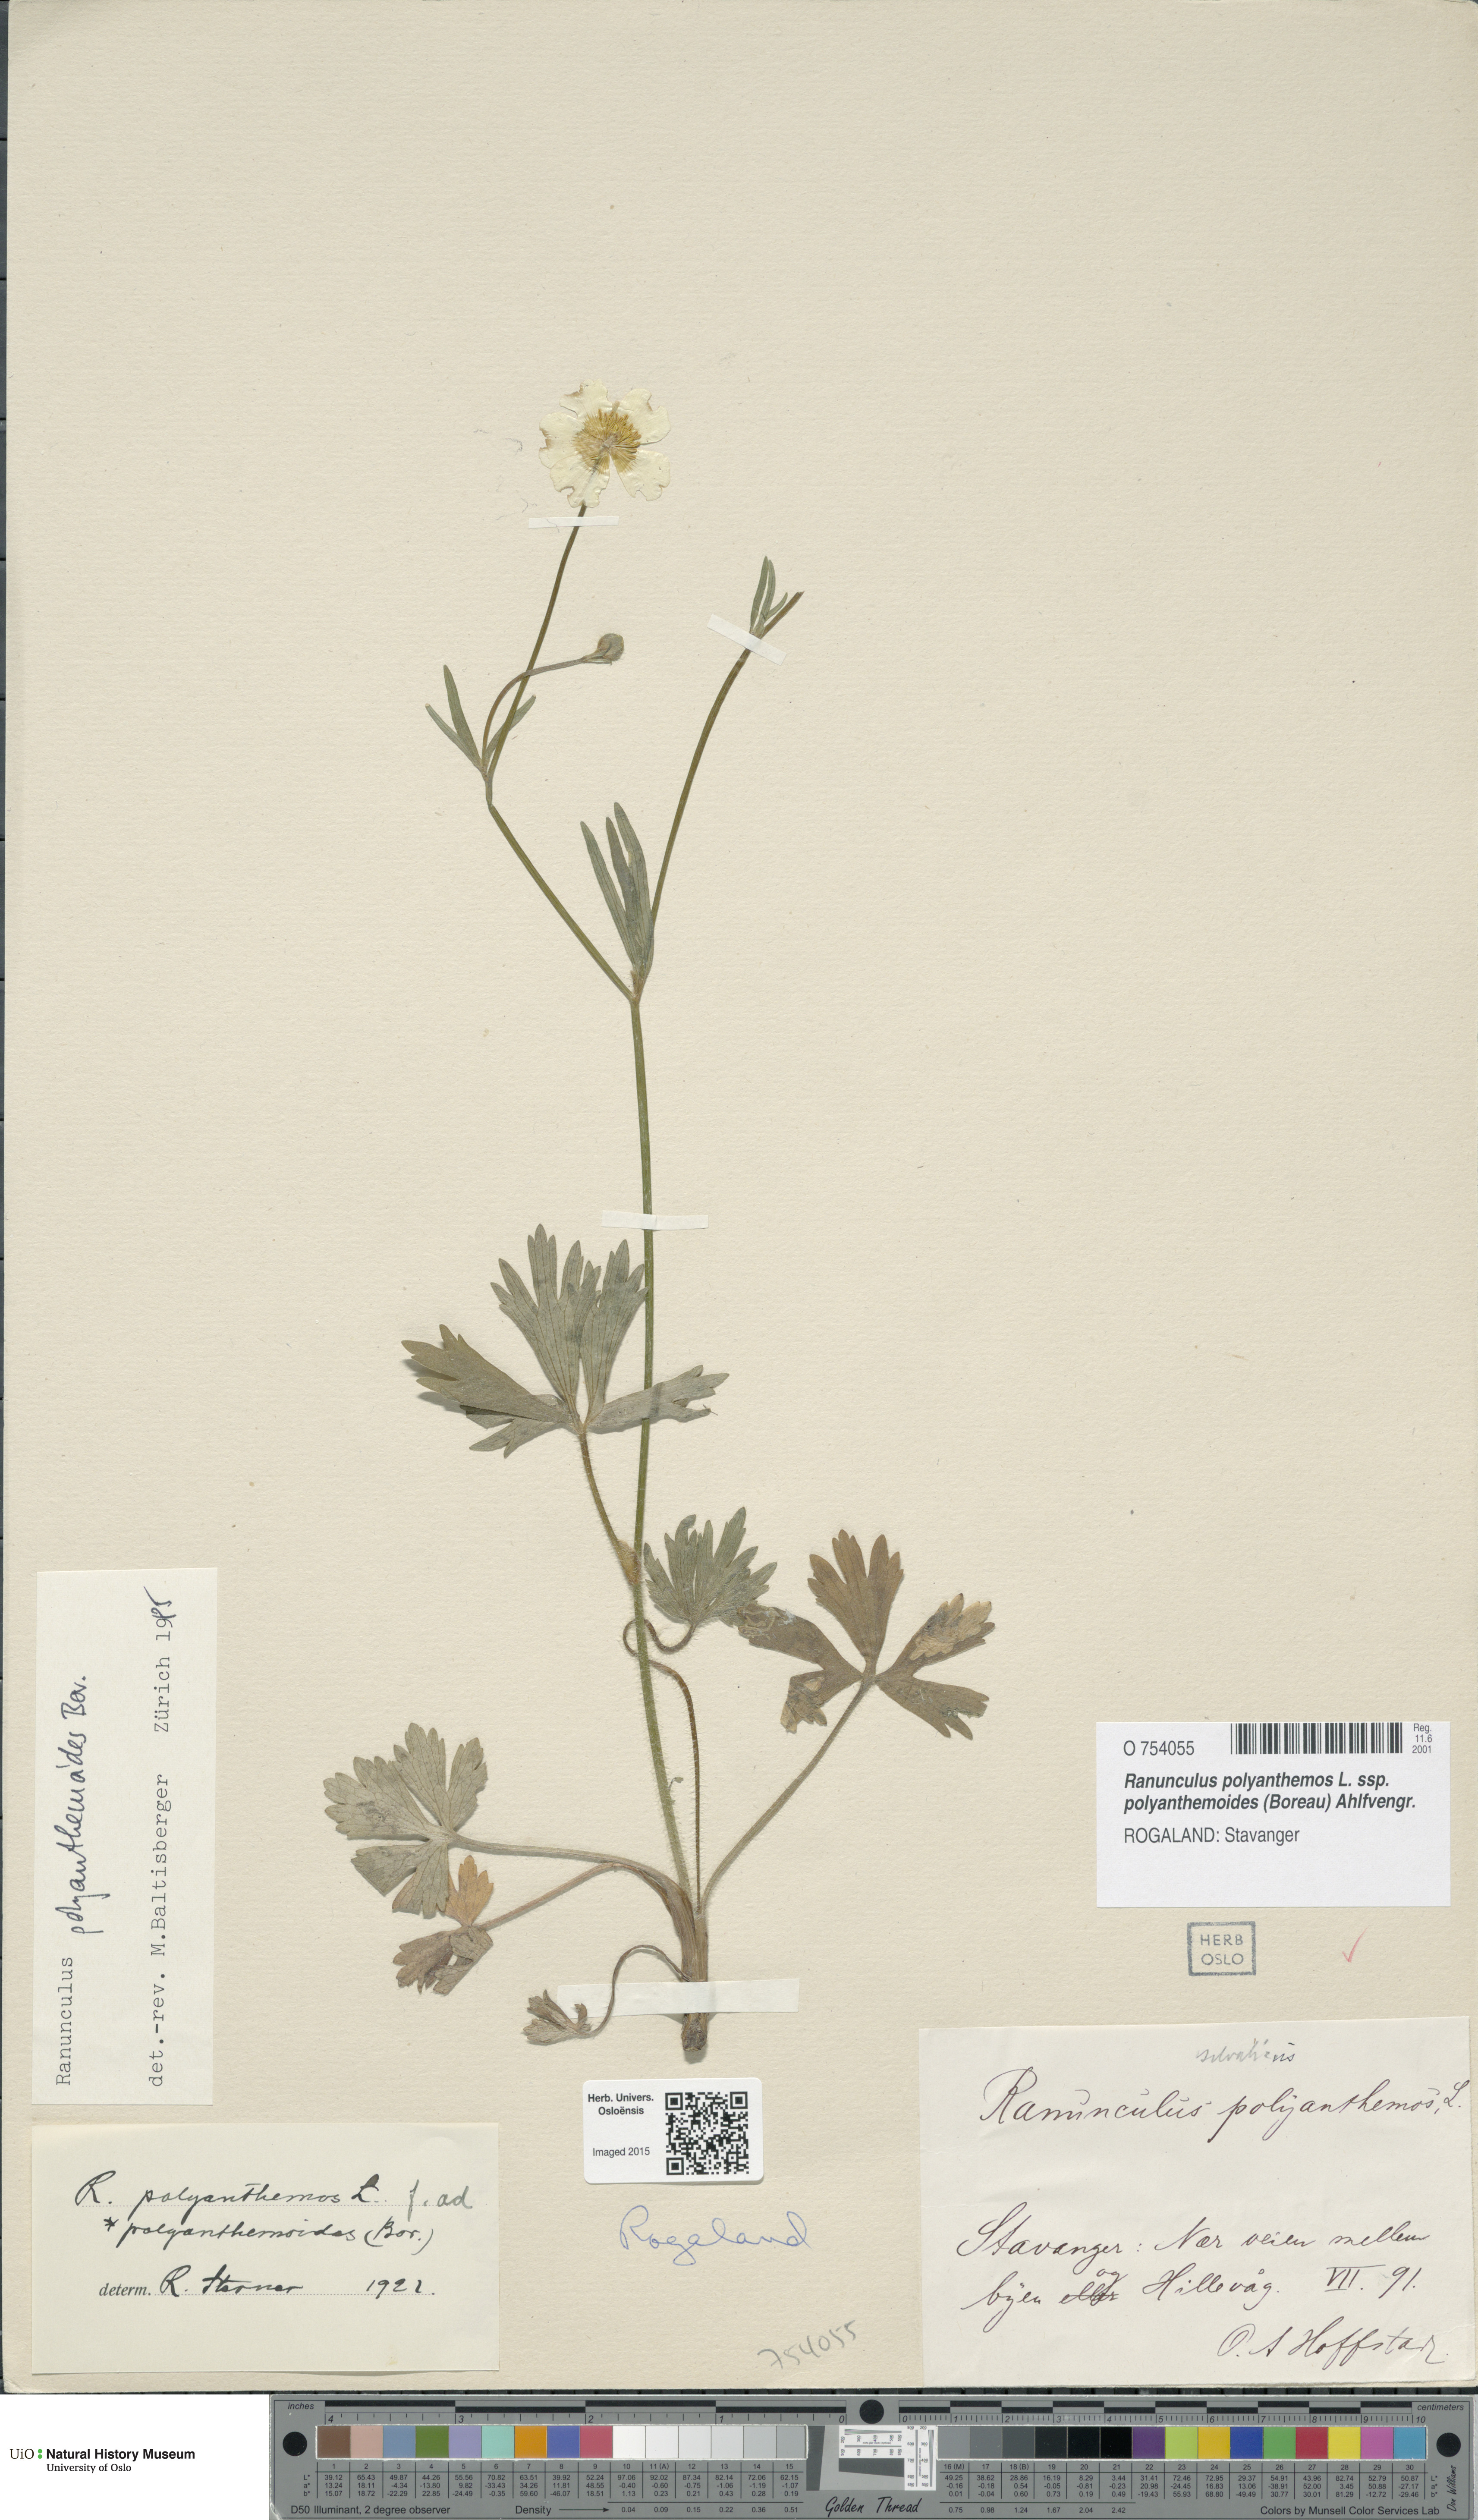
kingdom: Plantae
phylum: Tracheophyta
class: Magnoliopsida
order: Ranunculales
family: Ranunculaceae
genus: Ranunculus
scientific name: Ranunculus polyanthemos
